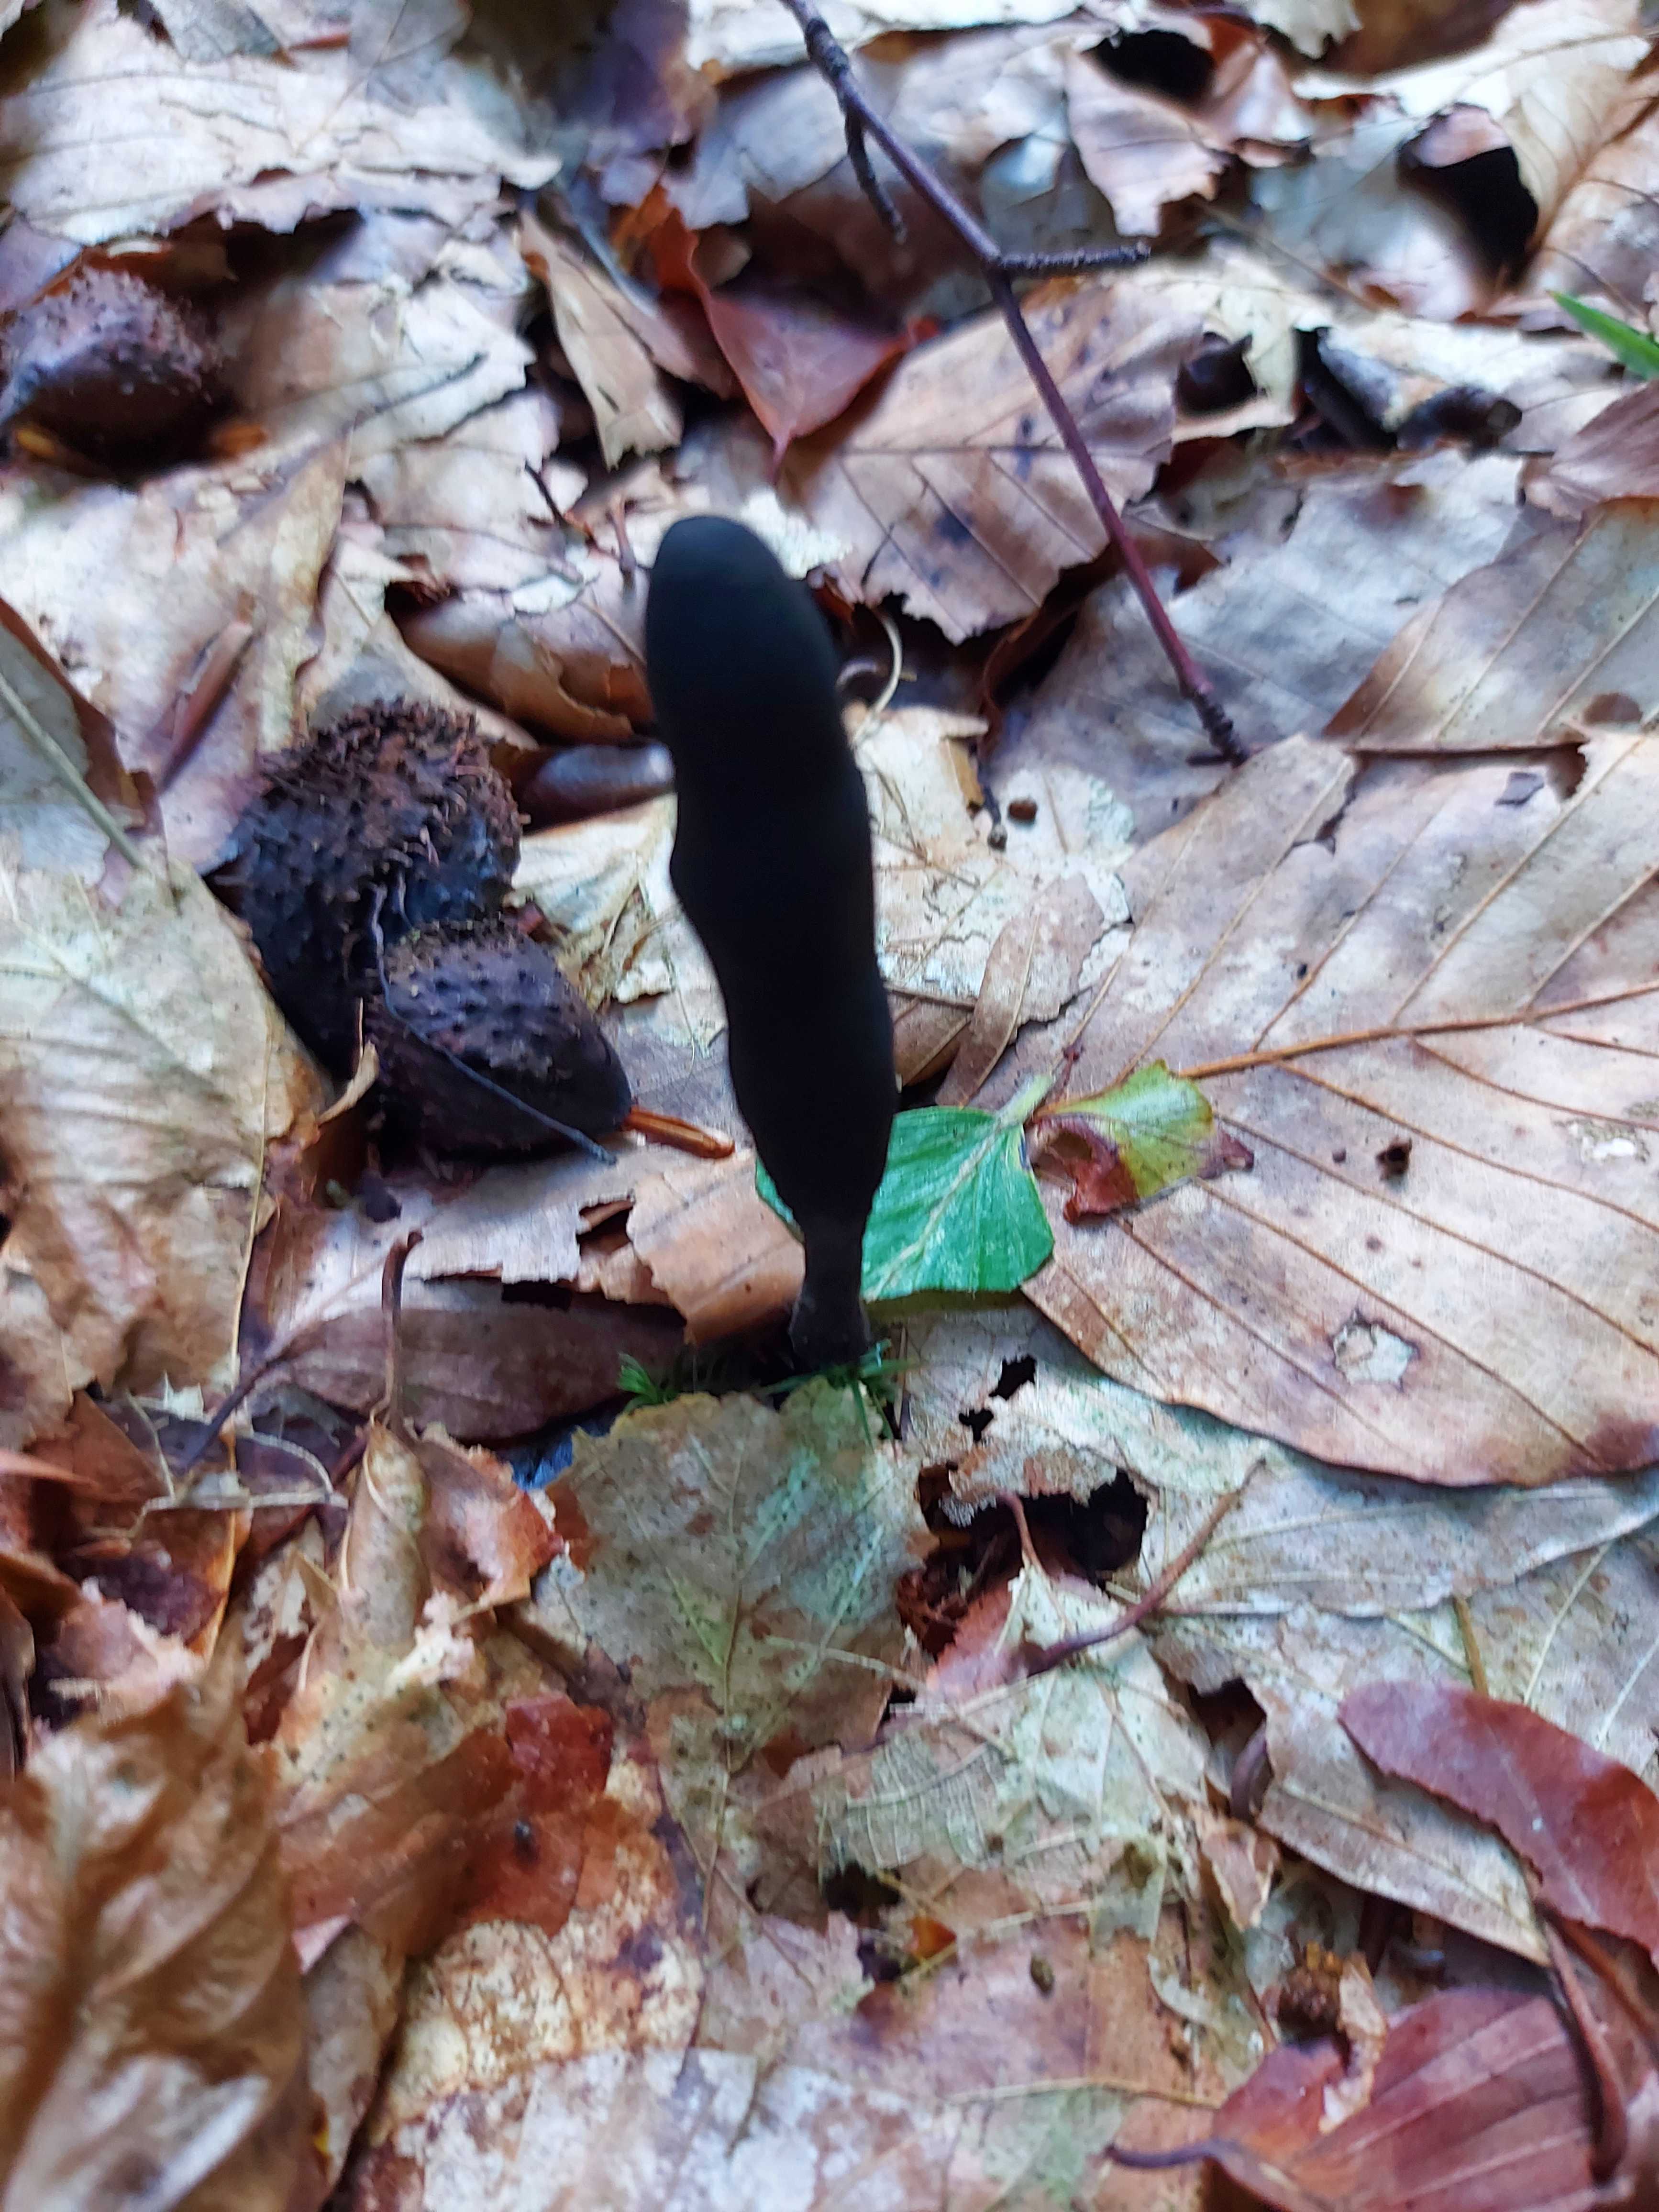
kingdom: Fungi
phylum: Ascomycota
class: Sordariomycetes
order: Xylariales
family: Xylariaceae
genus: Xylaria
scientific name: Xylaria longipes
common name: slank stødsvamp
